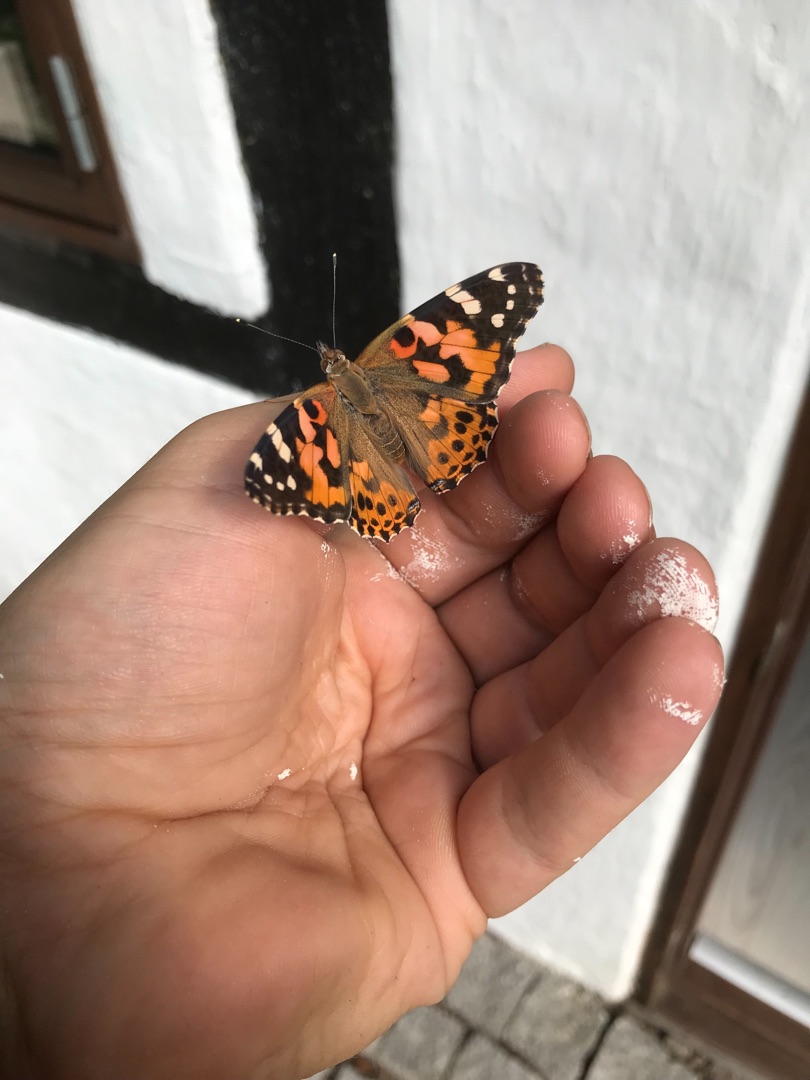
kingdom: Animalia
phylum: Arthropoda
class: Insecta
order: Lepidoptera
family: Nymphalidae
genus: Vanessa
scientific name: Vanessa cardui
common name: Tidselsommerfugl
